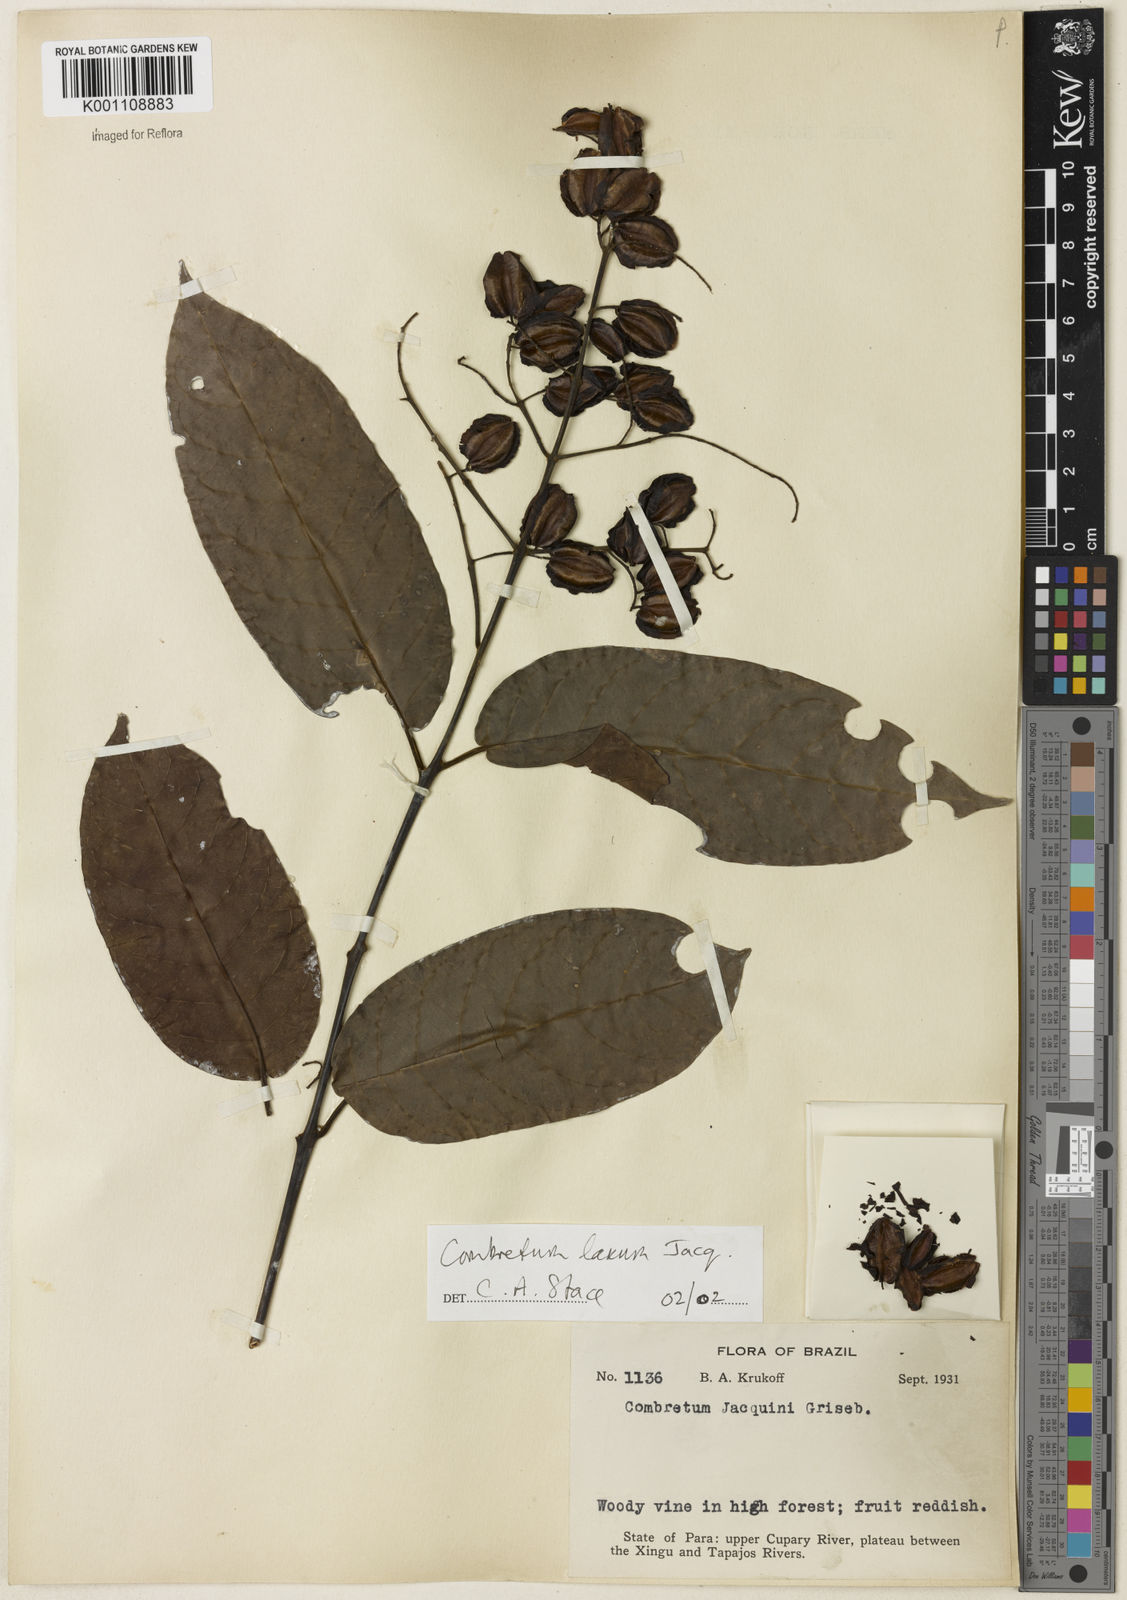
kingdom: Plantae
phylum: Tracheophyta
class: Magnoliopsida
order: Myrtales
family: Combretaceae
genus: Combretum
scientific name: Combretum laxum
